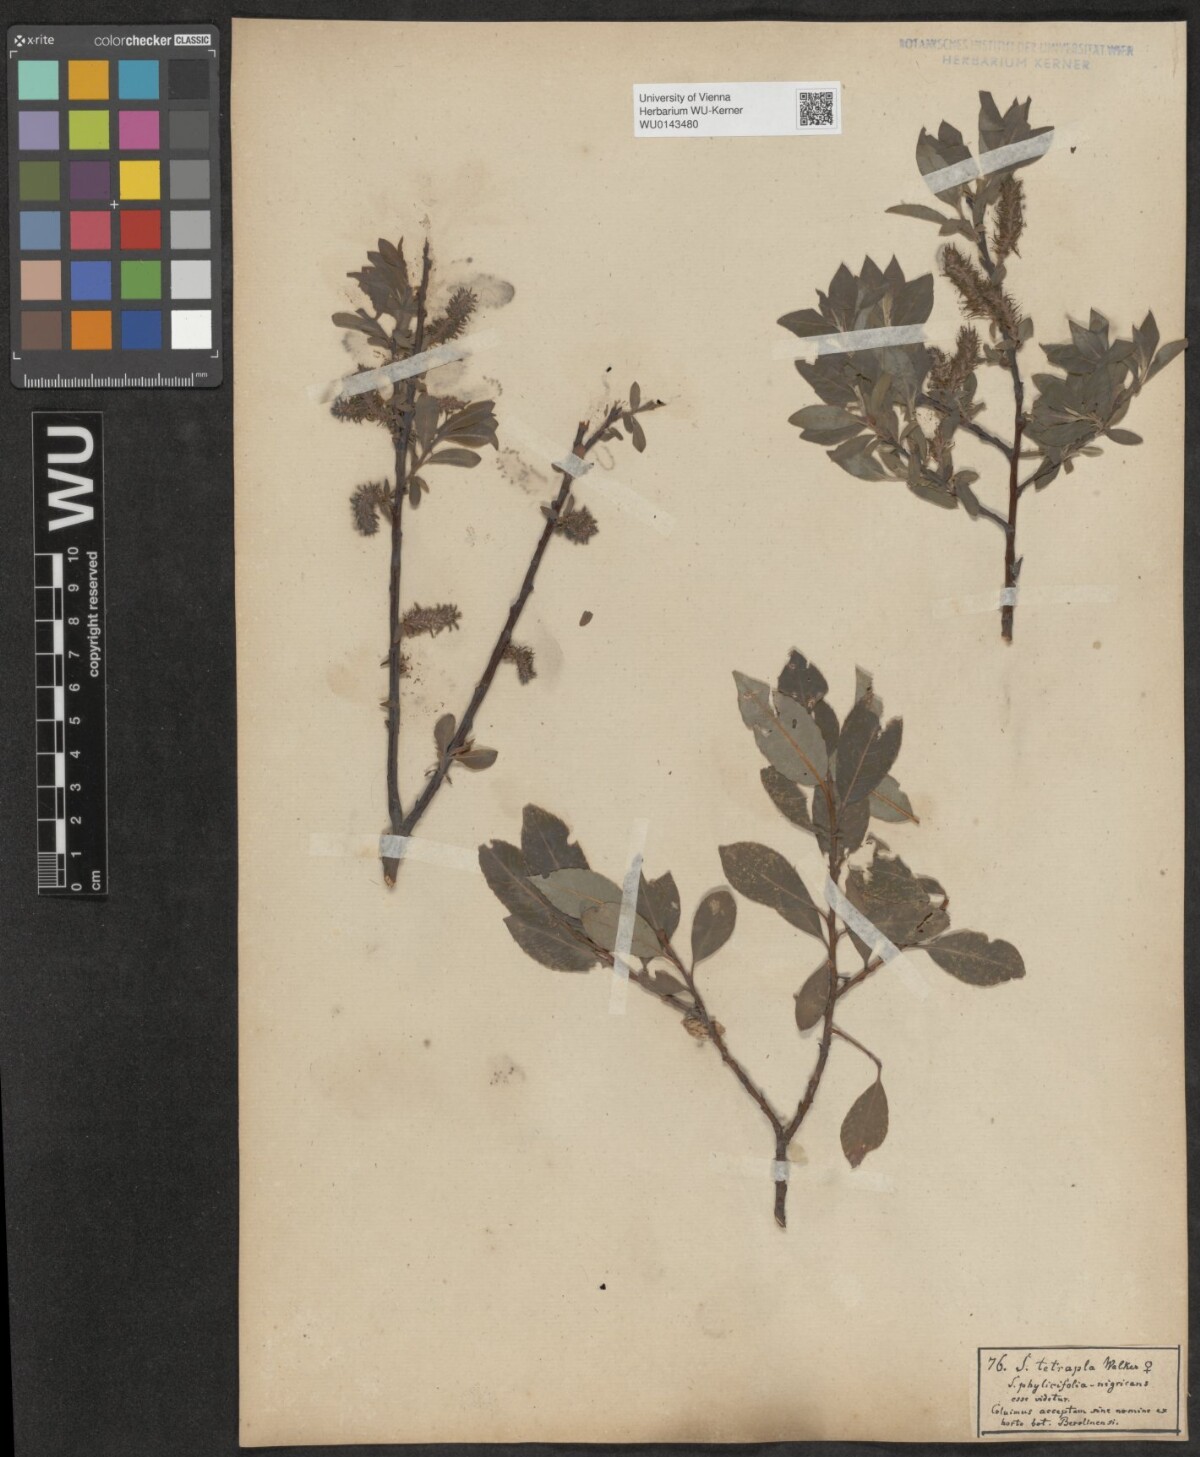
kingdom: Plantae
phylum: Tracheophyta
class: Magnoliopsida
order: Malpighiales
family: Salicaceae
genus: Salix
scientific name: Salix tetrapla
